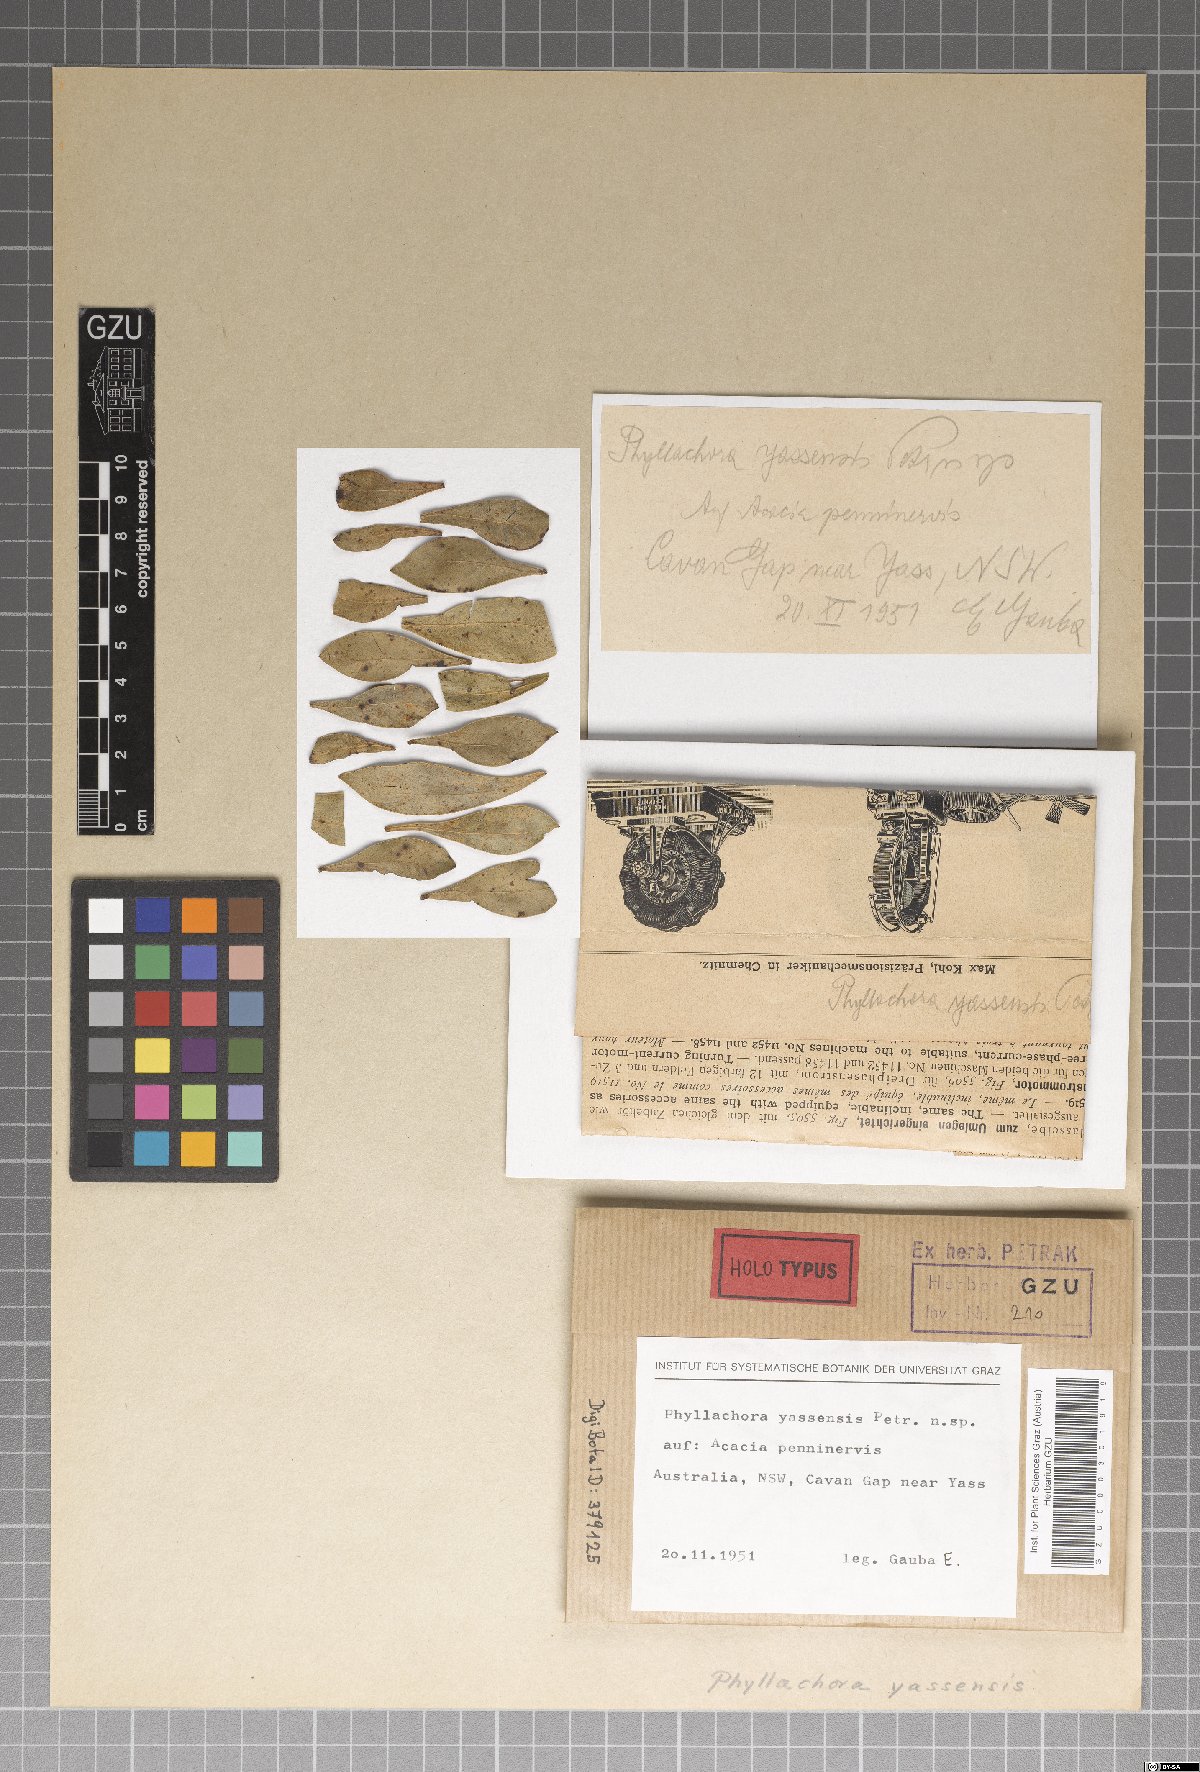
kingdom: Fungi
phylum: Ascomycota
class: Sordariomycetes
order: Phyllachorales
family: Phyllachoraceae
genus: Phyllachora
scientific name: Phyllachora yassensis
